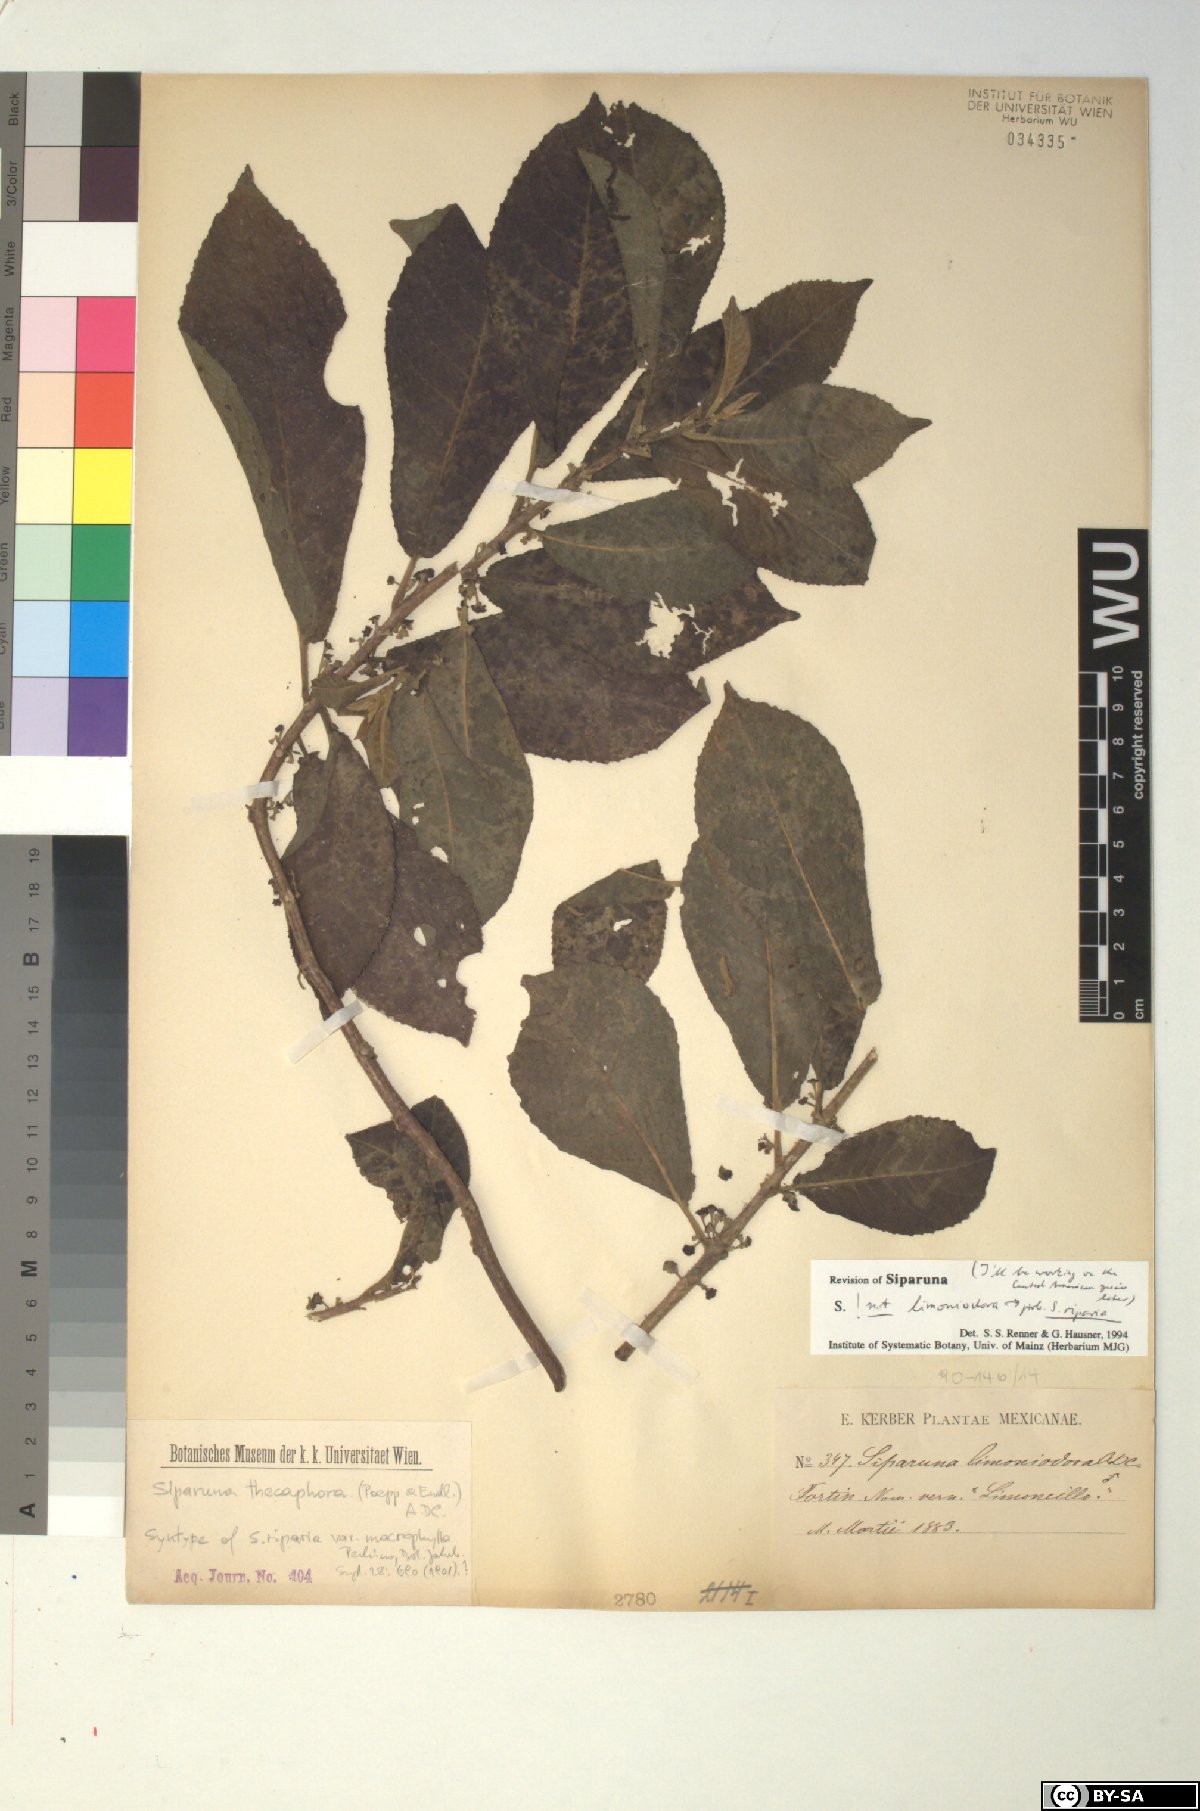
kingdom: Plantae
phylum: Tracheophyta
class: Magnoliopsida
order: Laurales
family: Siparunaceae
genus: Siparuna
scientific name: Siparuna thecaphora
